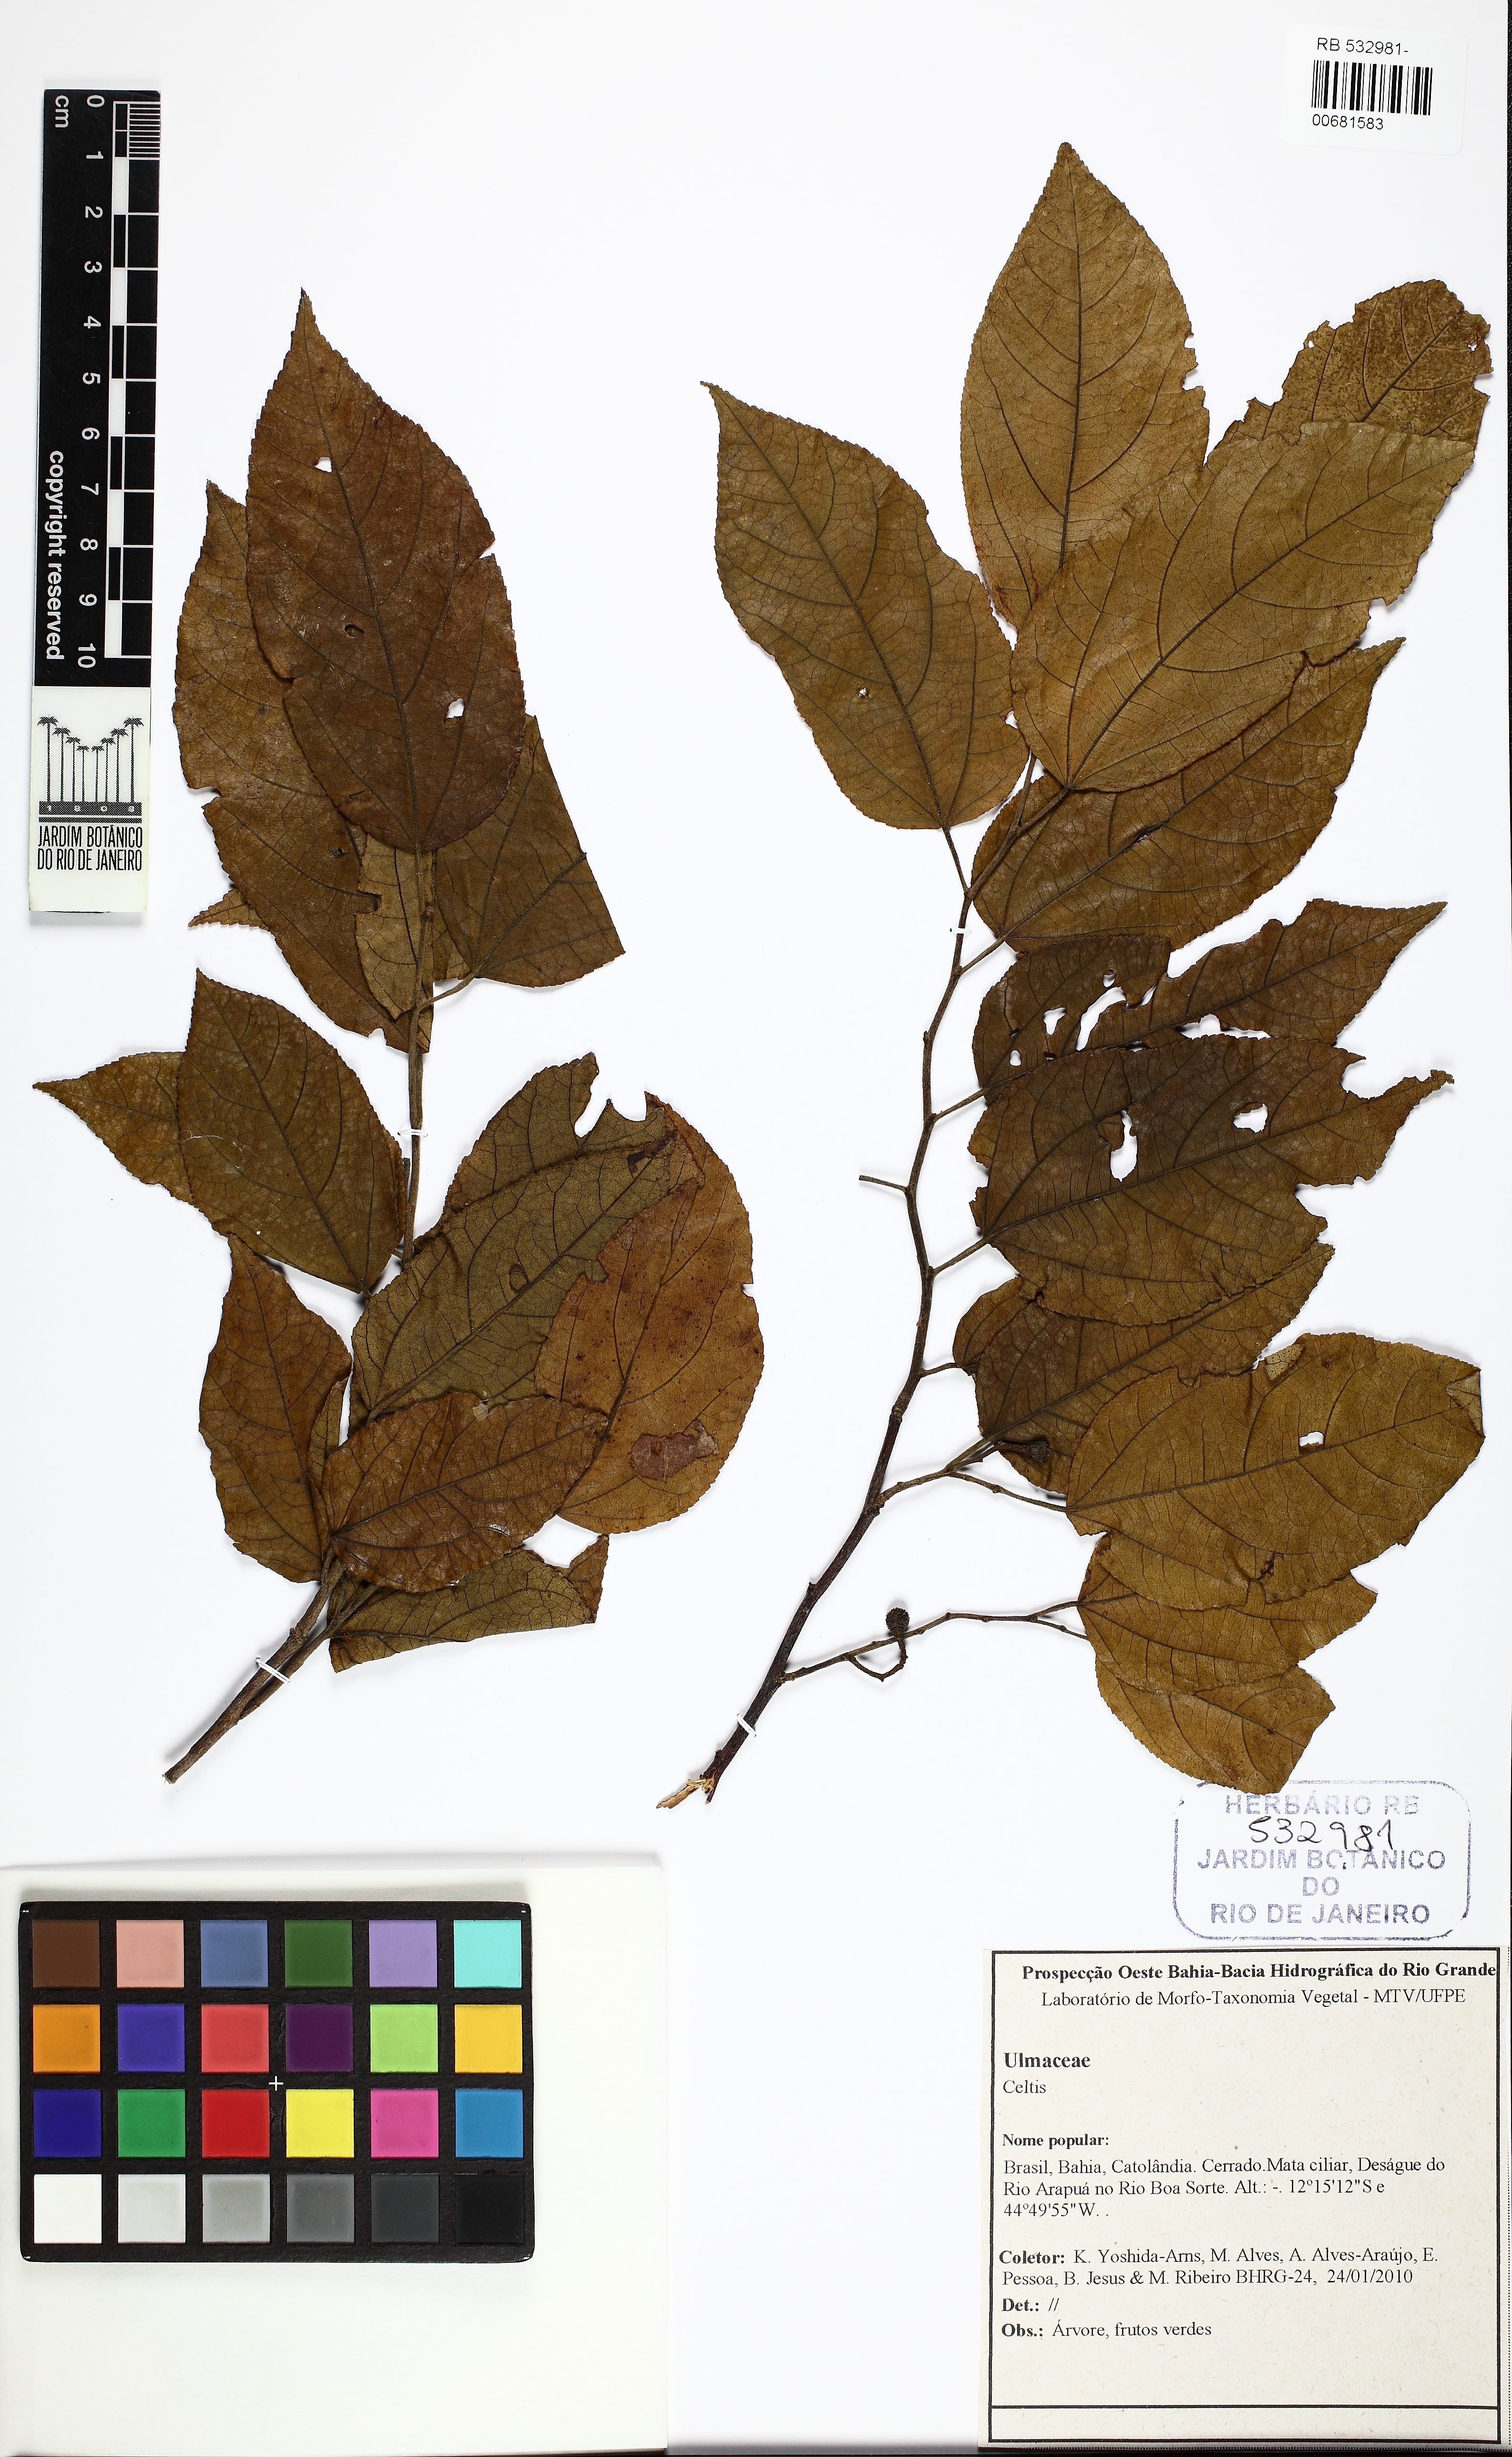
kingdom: Plantae
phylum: Tracheophyta
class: Magnoliopsida
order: Rosales
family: Cannabaceae
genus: Celtis
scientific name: Celtis orthacanthos
